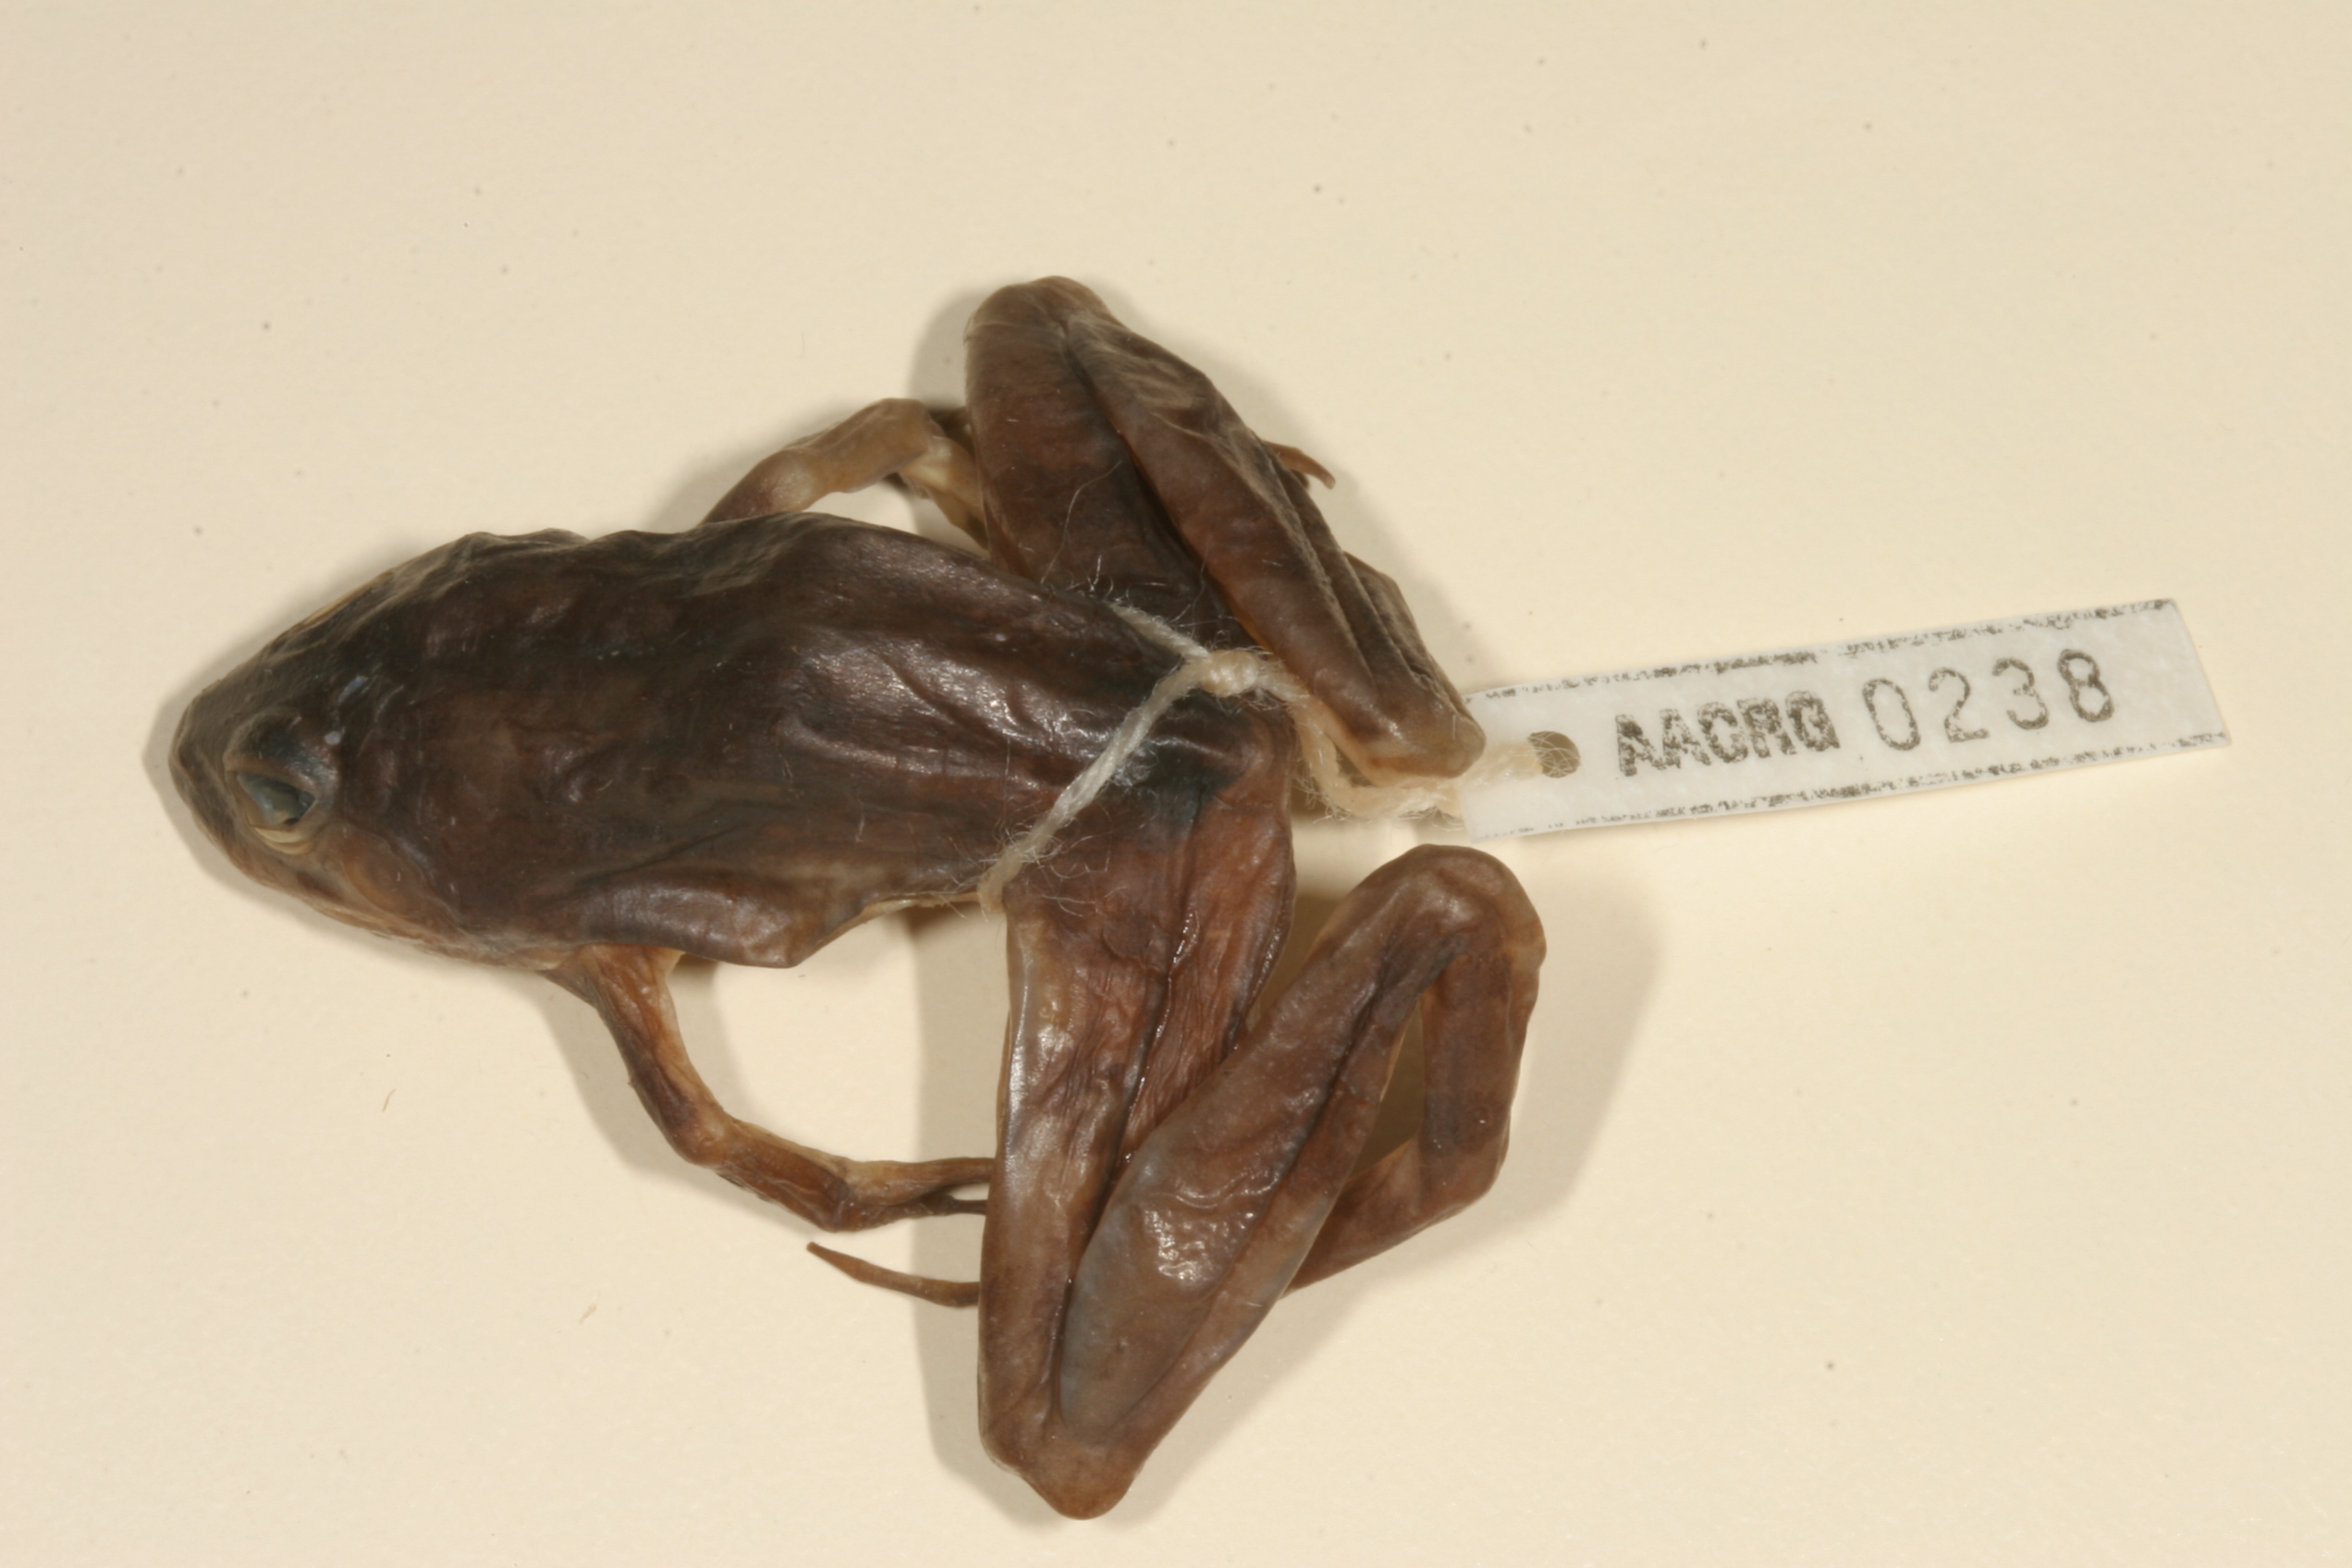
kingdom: Animalia
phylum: Chordata
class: Amphibia
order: Anura
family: Pyxicephalidae
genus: Amietia
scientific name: Amietia angolensis
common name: Dusky-throated frog
